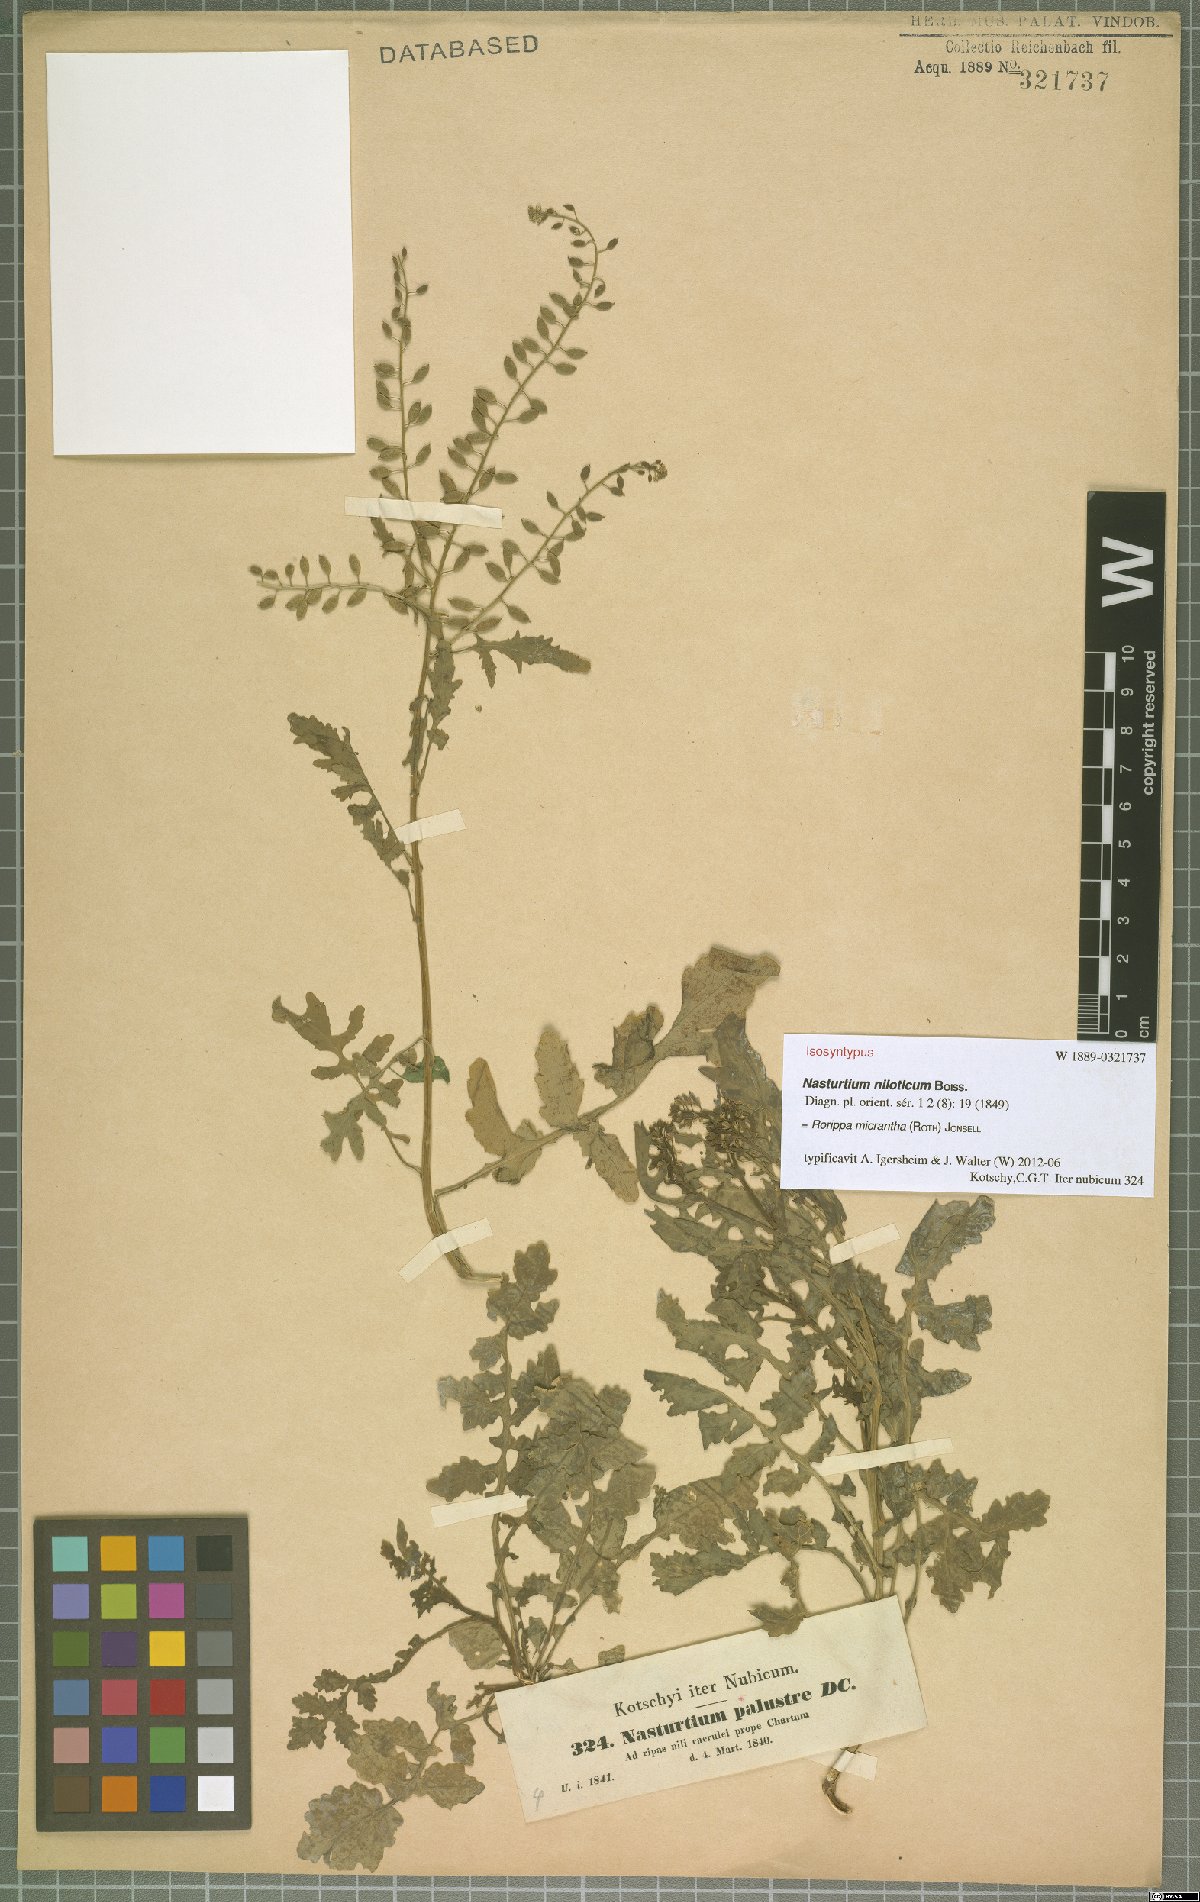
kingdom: Plantae
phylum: Tracheophyta
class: Magnoliopsida
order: Brassicales
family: Brassicaceae
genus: Rorippa
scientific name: Rorippa micrantha
